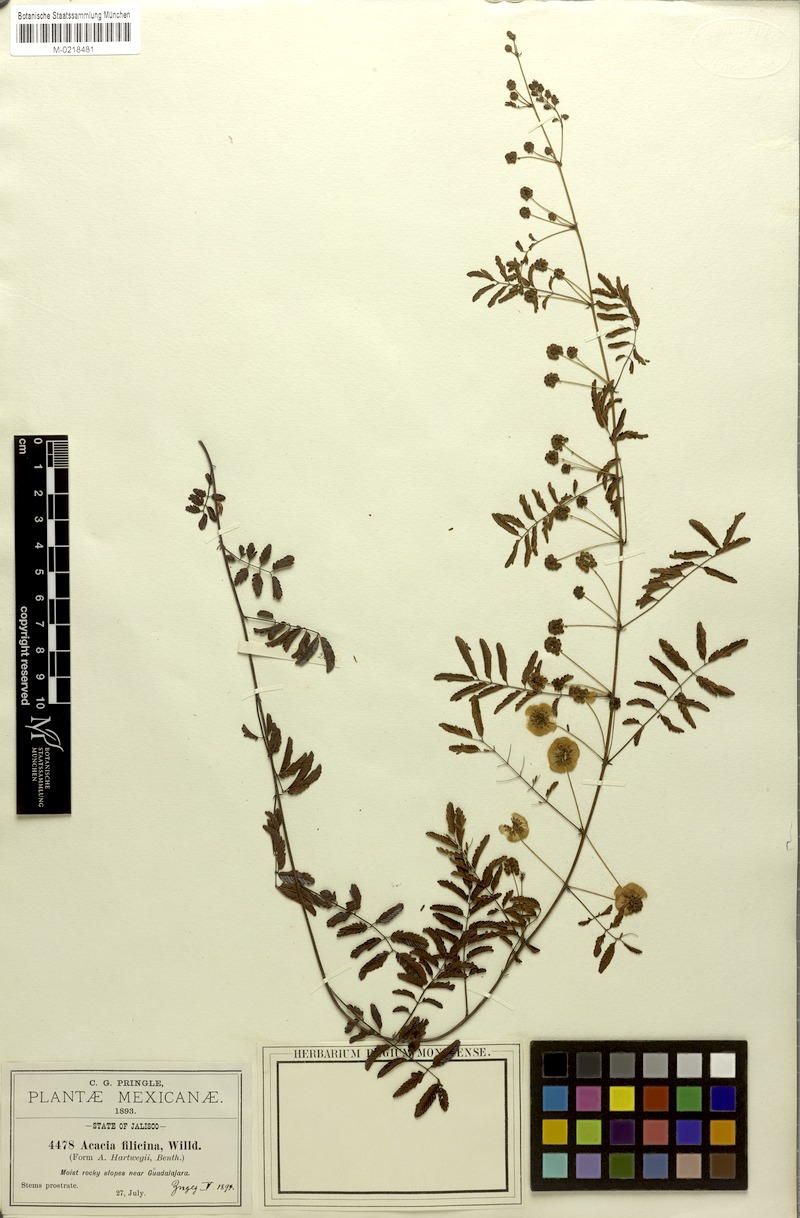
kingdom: Plantae
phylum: Tracheophyta
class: Magnoliopsida
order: Fabales
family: Fabaceae
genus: Acaciella
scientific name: Acaciella hartwegii
